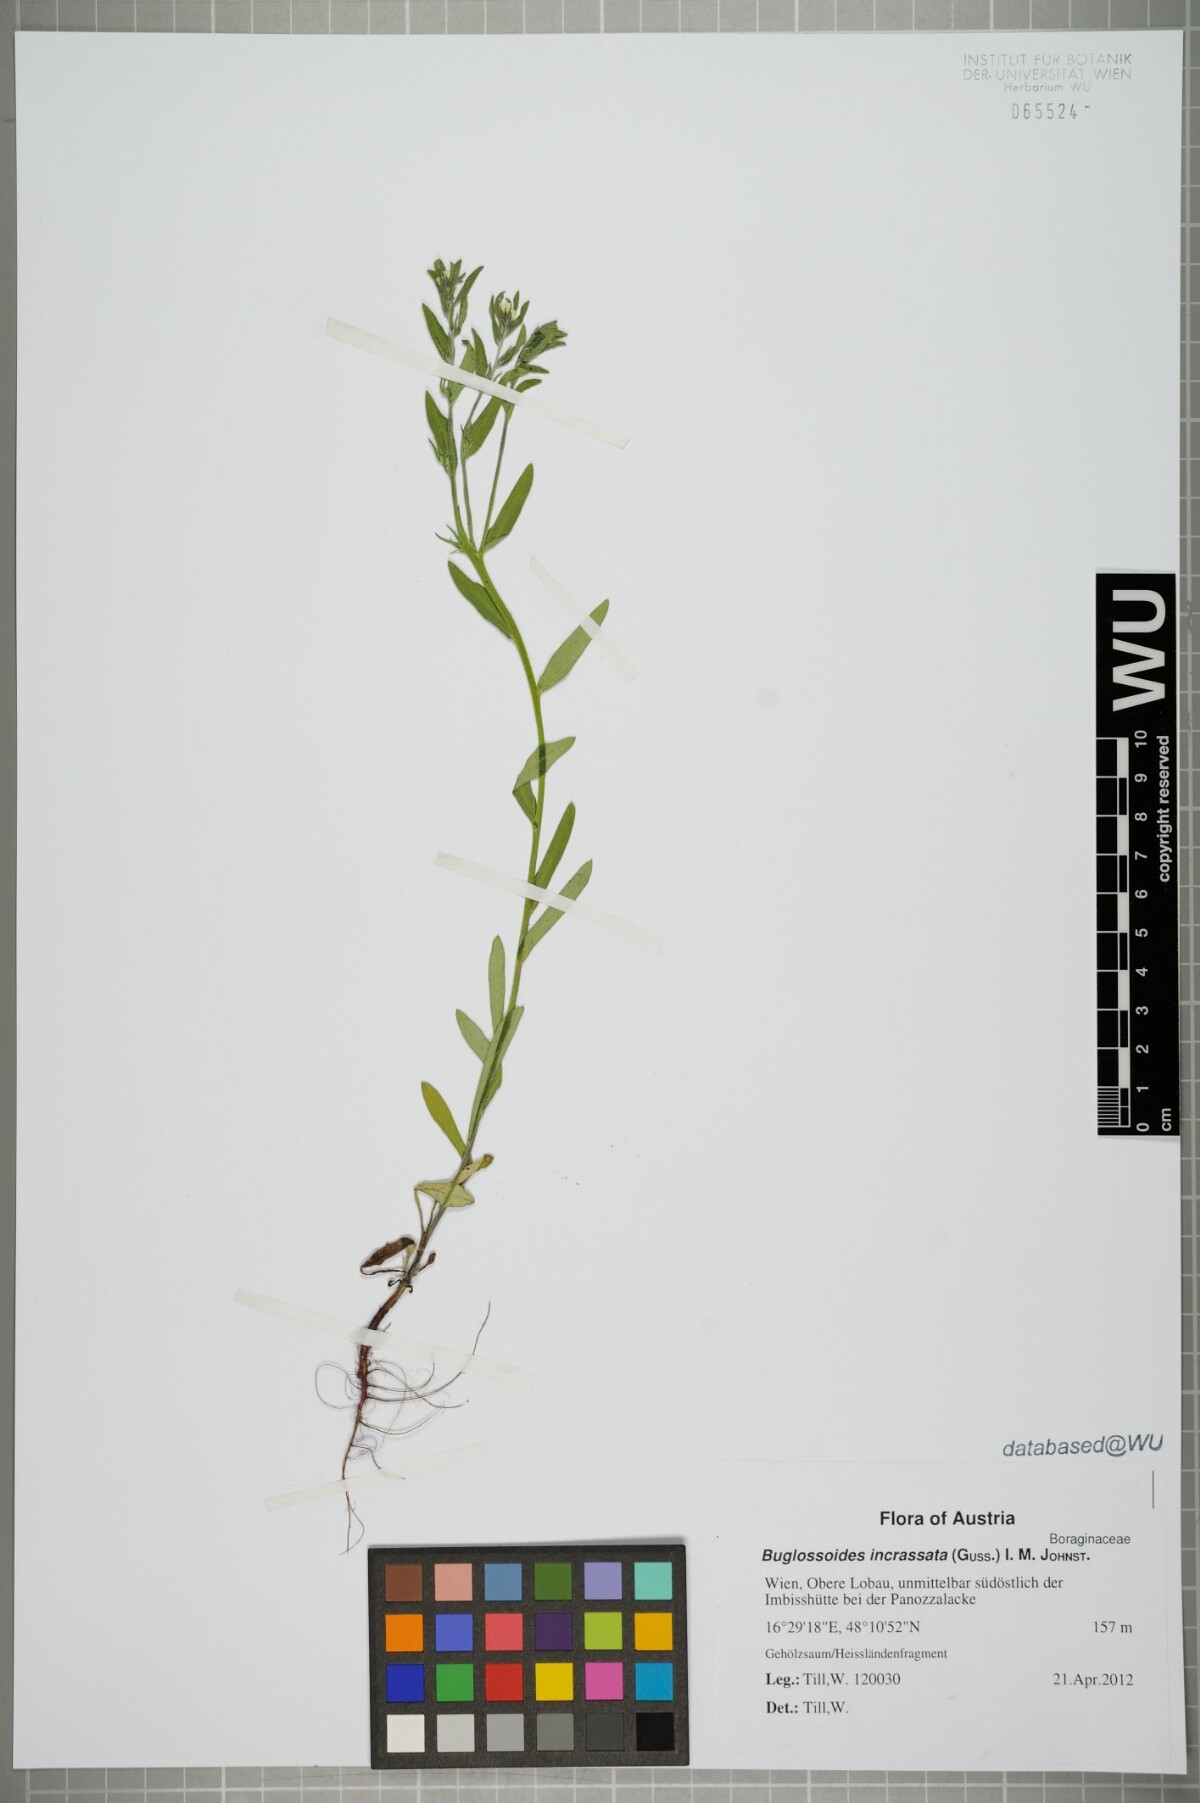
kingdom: Plantae
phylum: Tracheophyta
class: Magnoliopsida
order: Boraginales
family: Boraginaceae
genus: Buglossoides
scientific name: Buglossoides incrassata
